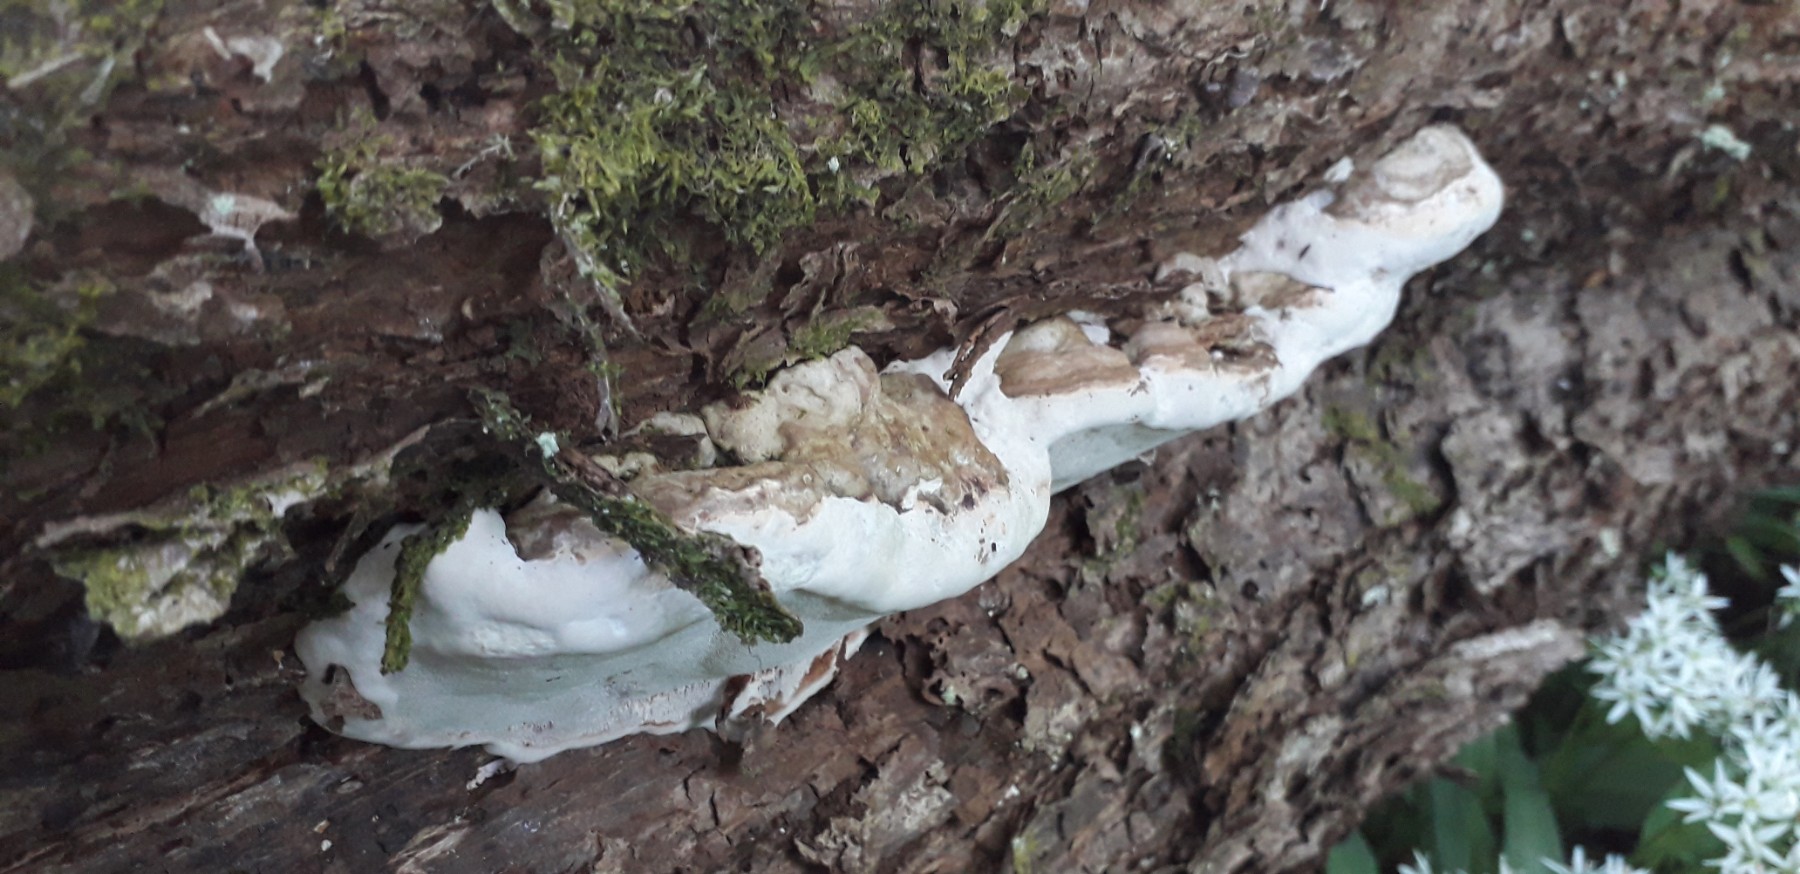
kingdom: Fungi
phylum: Basidiomycota
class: Agaricomycetes
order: Polyporales
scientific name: Polyporales
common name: poresvampordenen
